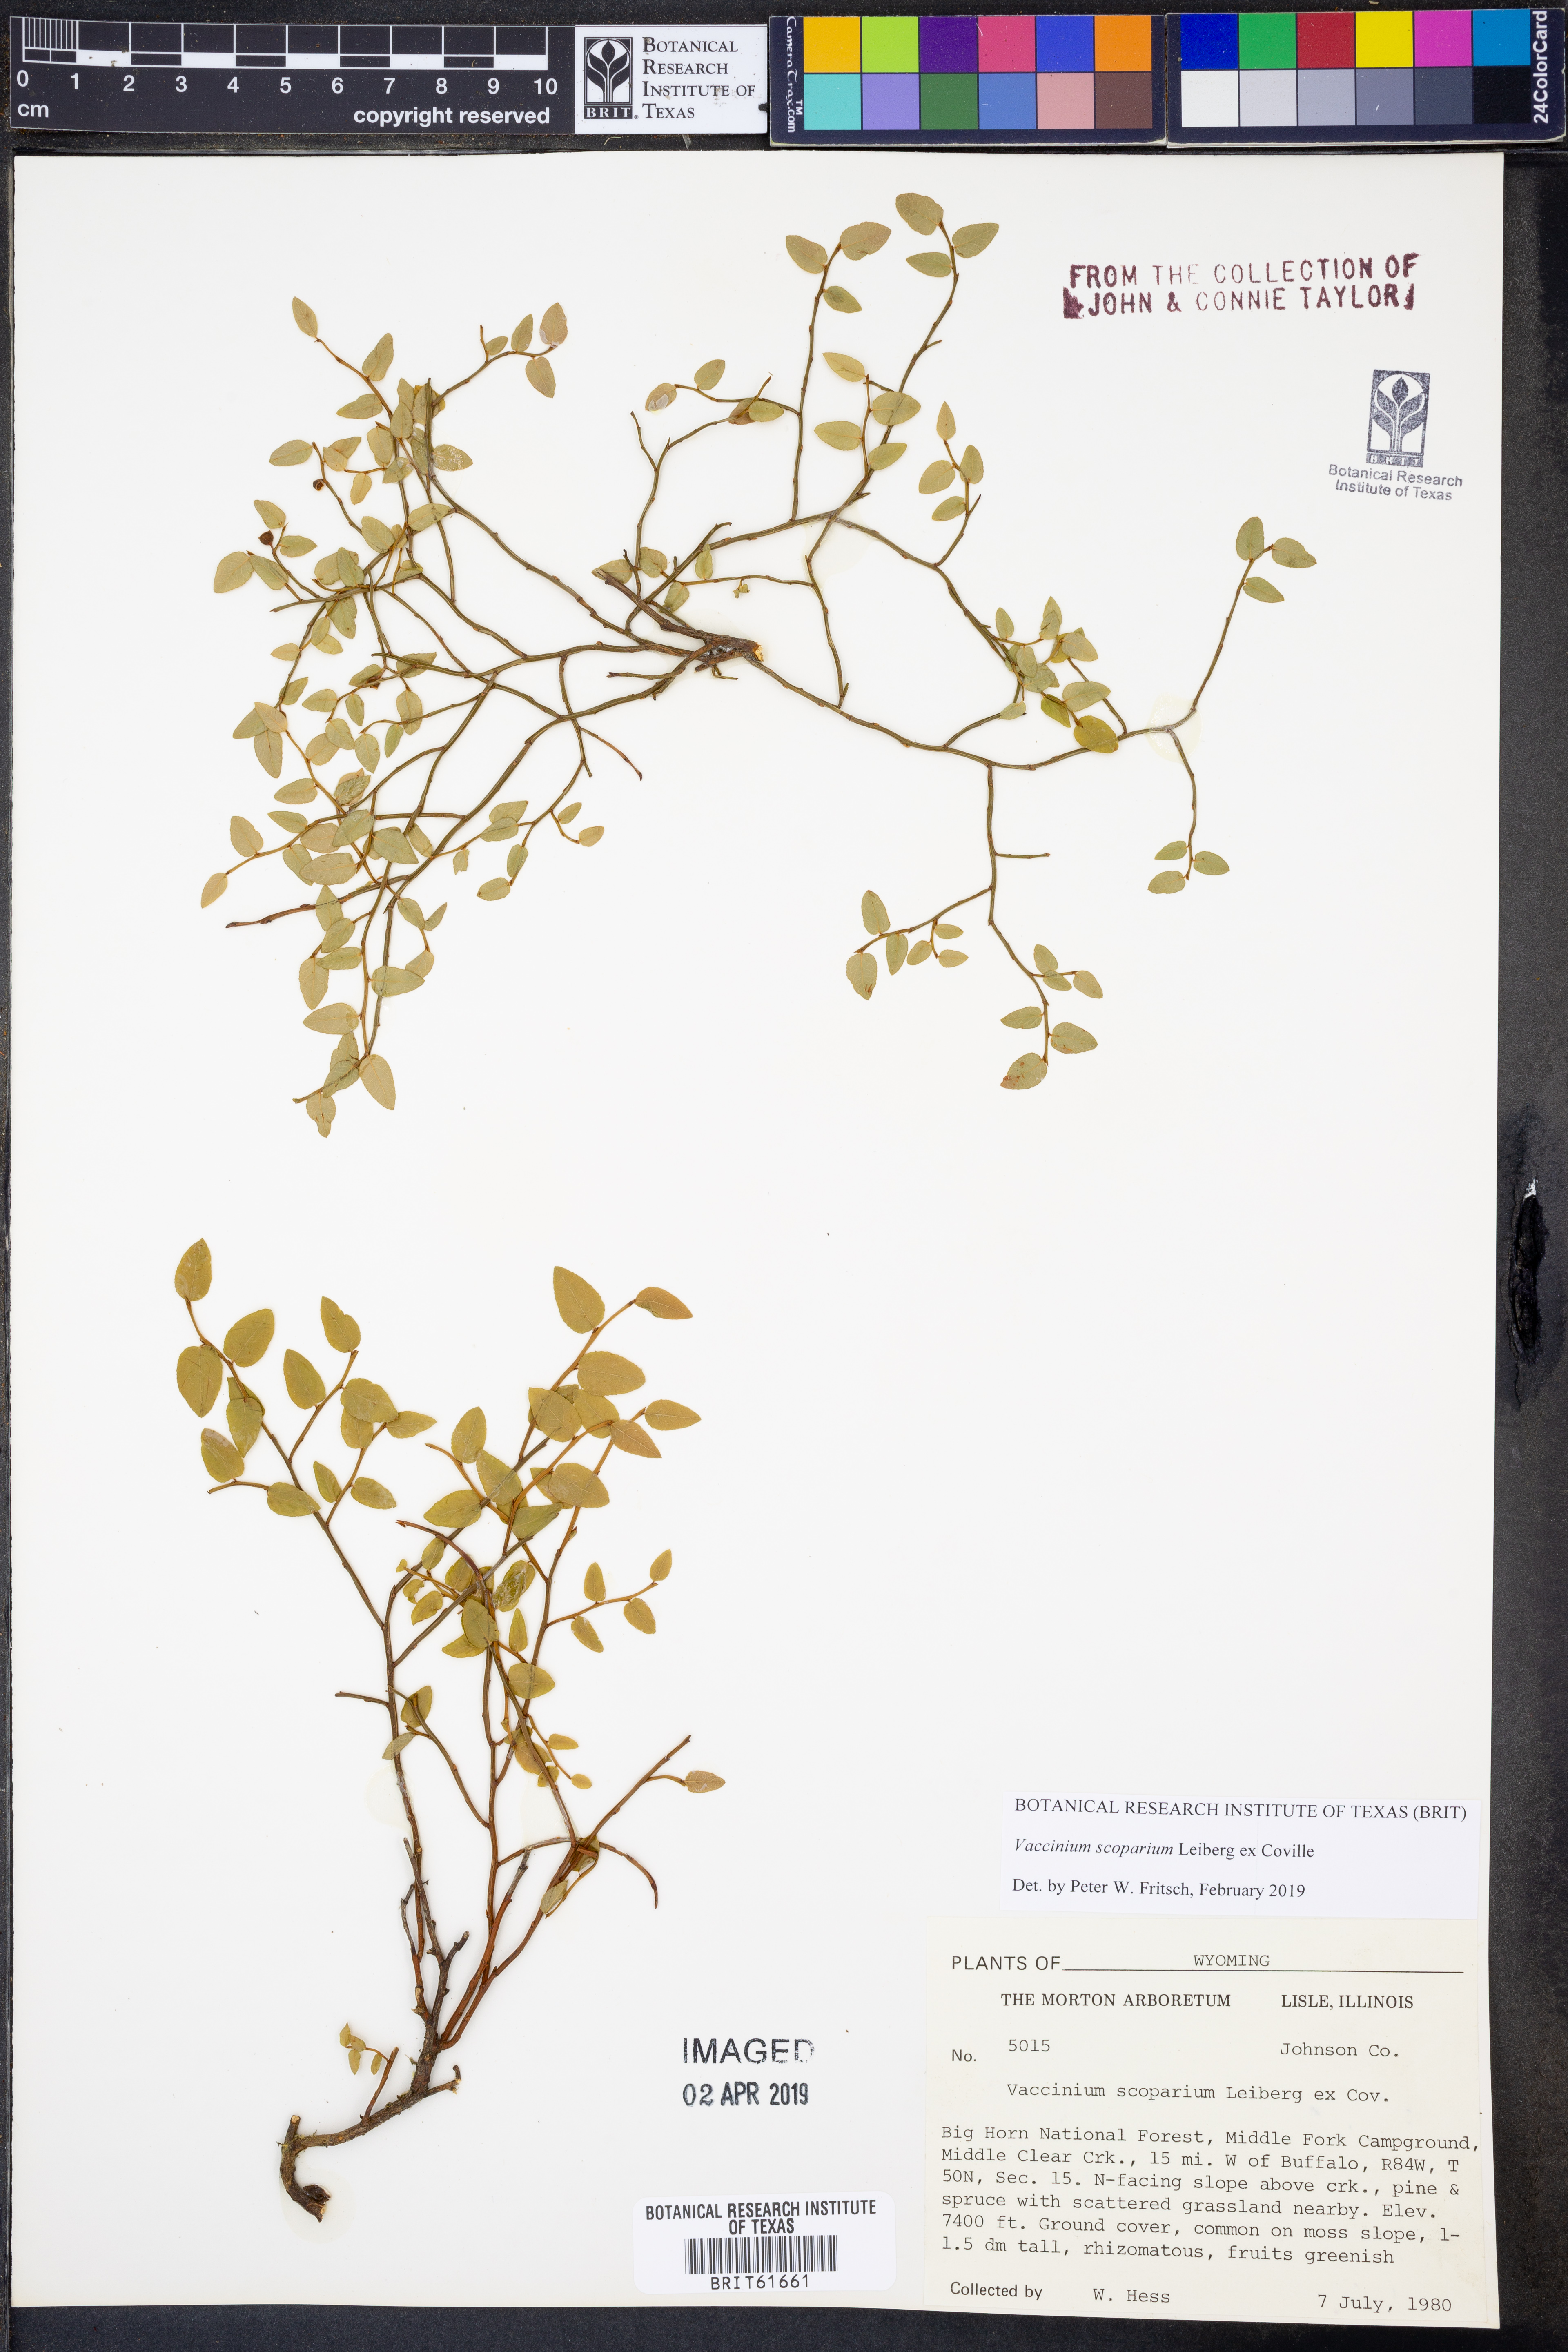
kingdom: Plantae
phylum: Tracheophyta
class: Magnoliopsida
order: Ericales
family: Ericaceae
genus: Vaccinium
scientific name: Vaccinium scoparium
